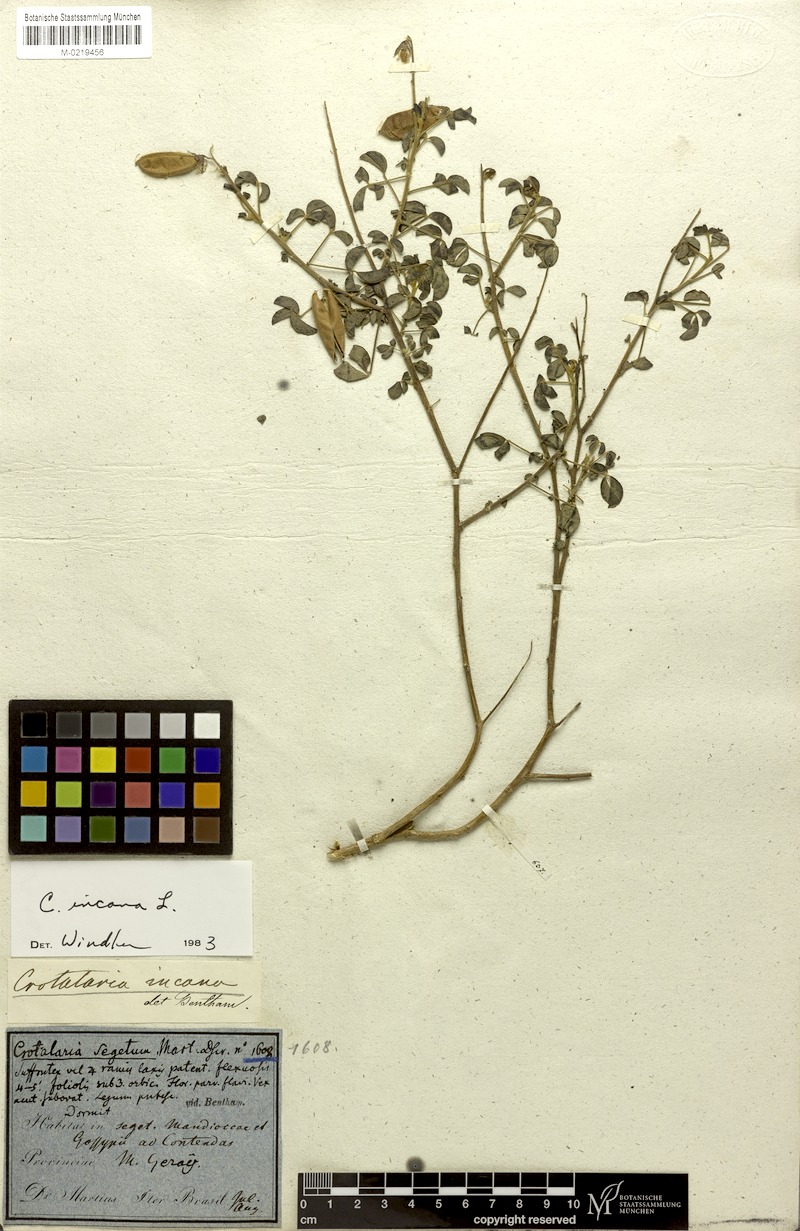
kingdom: Plantae
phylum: Tracheophyta
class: Magnoliopsida
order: Fabales
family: Fabaceae
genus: Crotalaria
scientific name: Crotalaria incana
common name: Shakeshake
